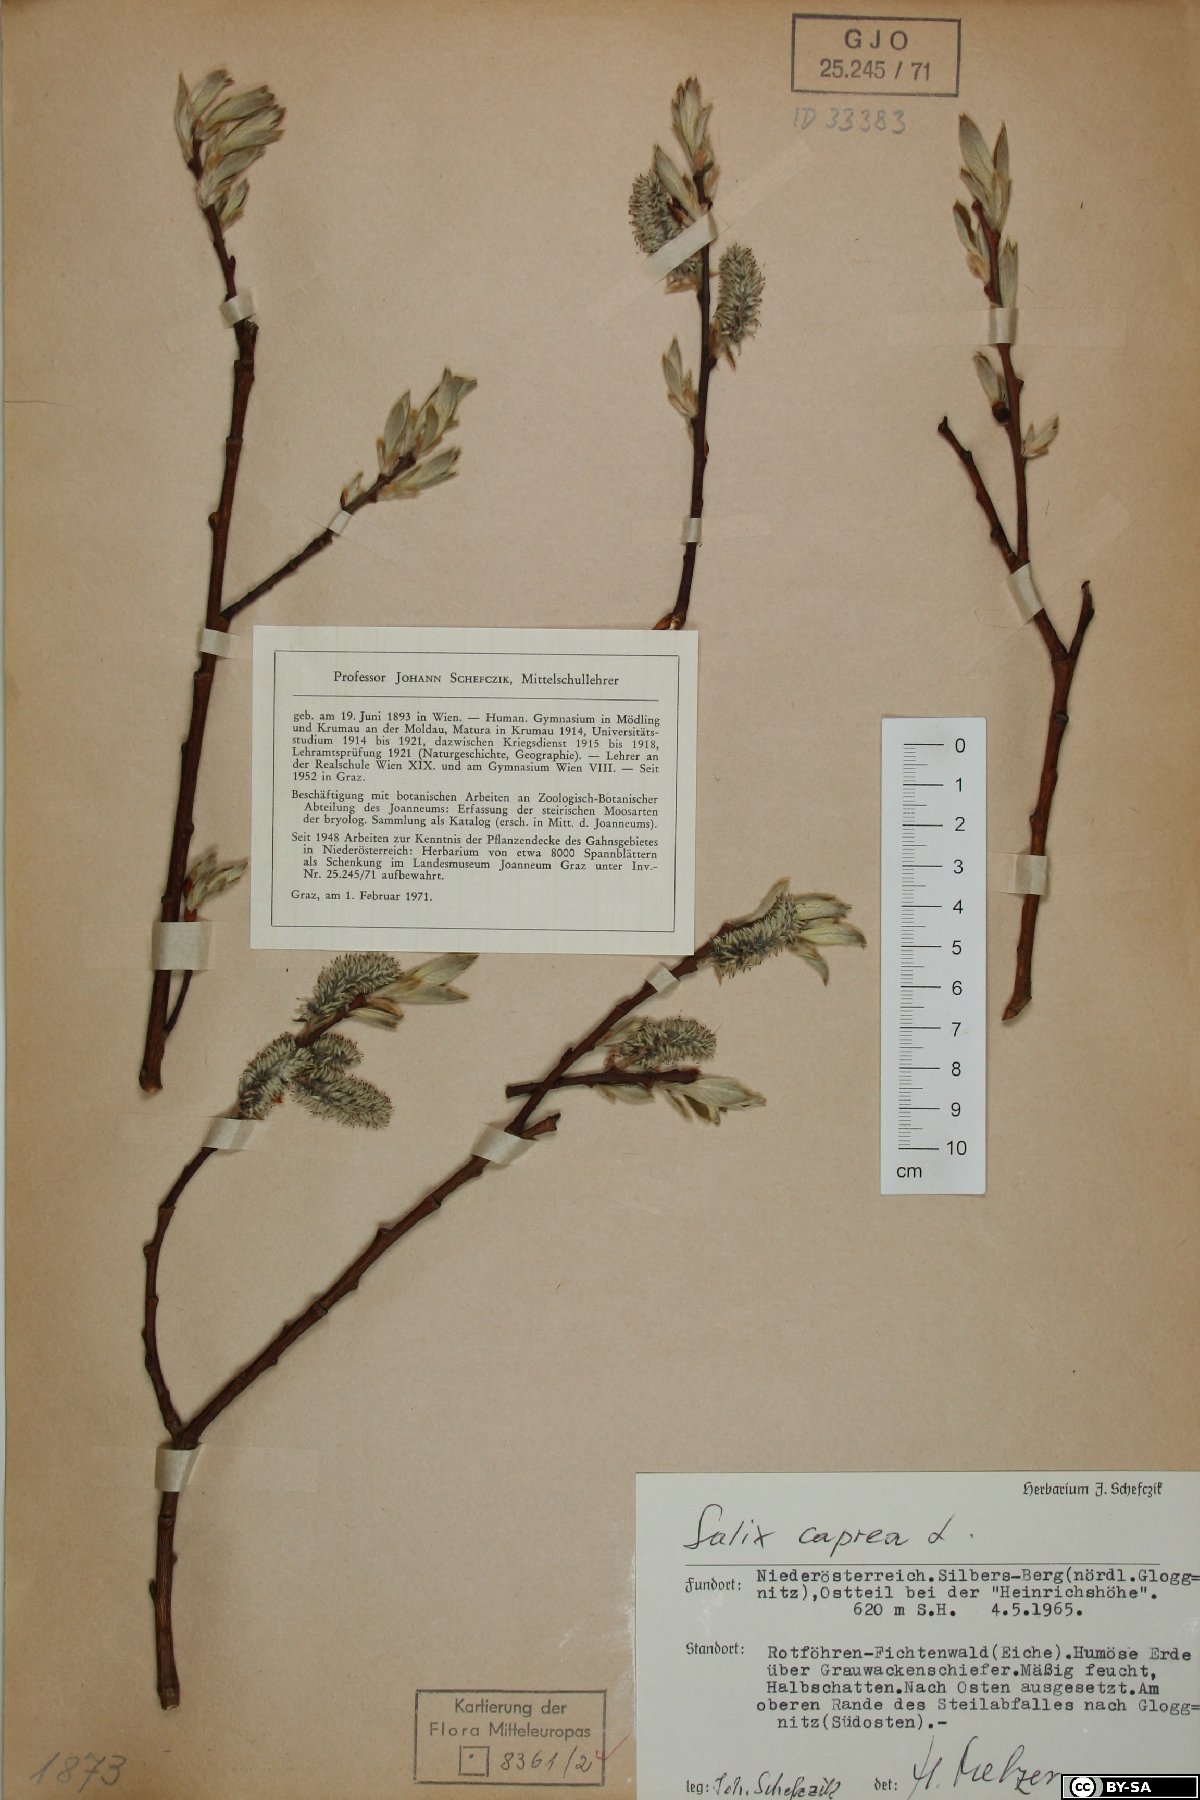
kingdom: Plantae
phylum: Tracheophyta
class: Magnoliopsida
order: Malpighiales
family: Salicaceae
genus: Salix
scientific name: Salix caprea
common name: Goat willow
